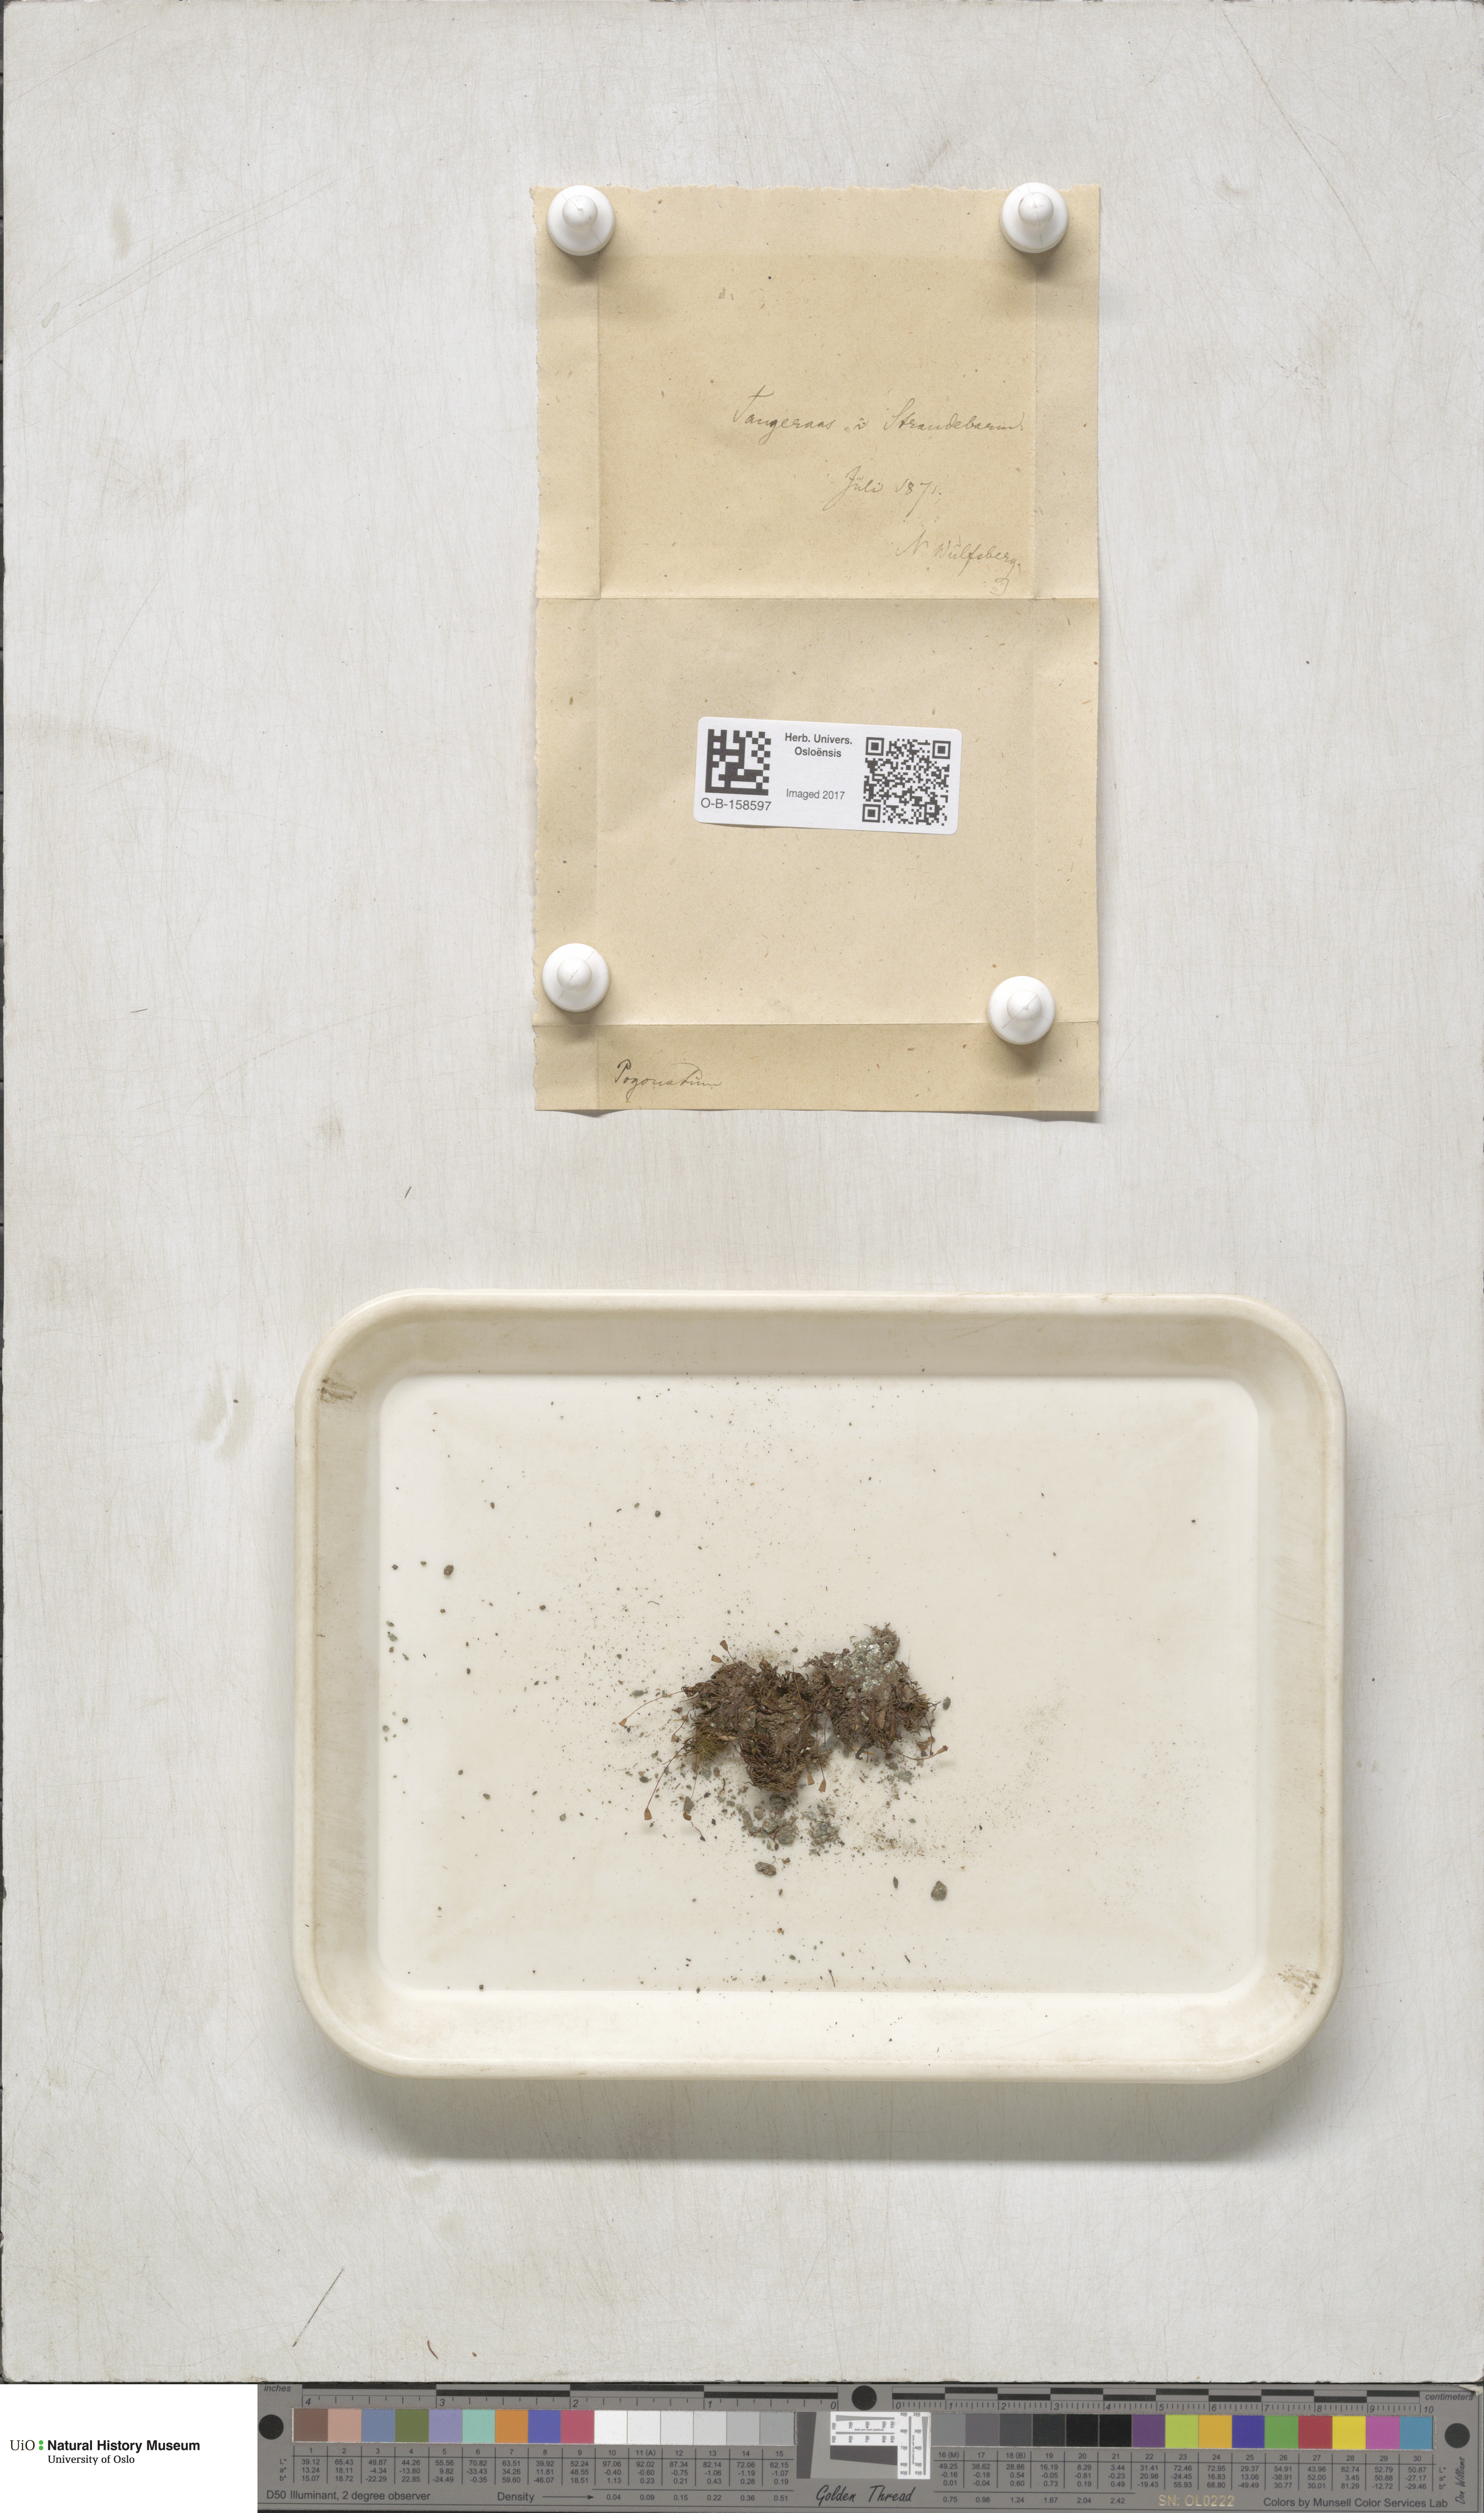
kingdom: Plantae
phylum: Bryophyta
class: Polytrichopsida
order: Polytrichales
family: Polytrichaceae
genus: Pogonatum
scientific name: Pogonatum urnigerum
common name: Urn hair moss
